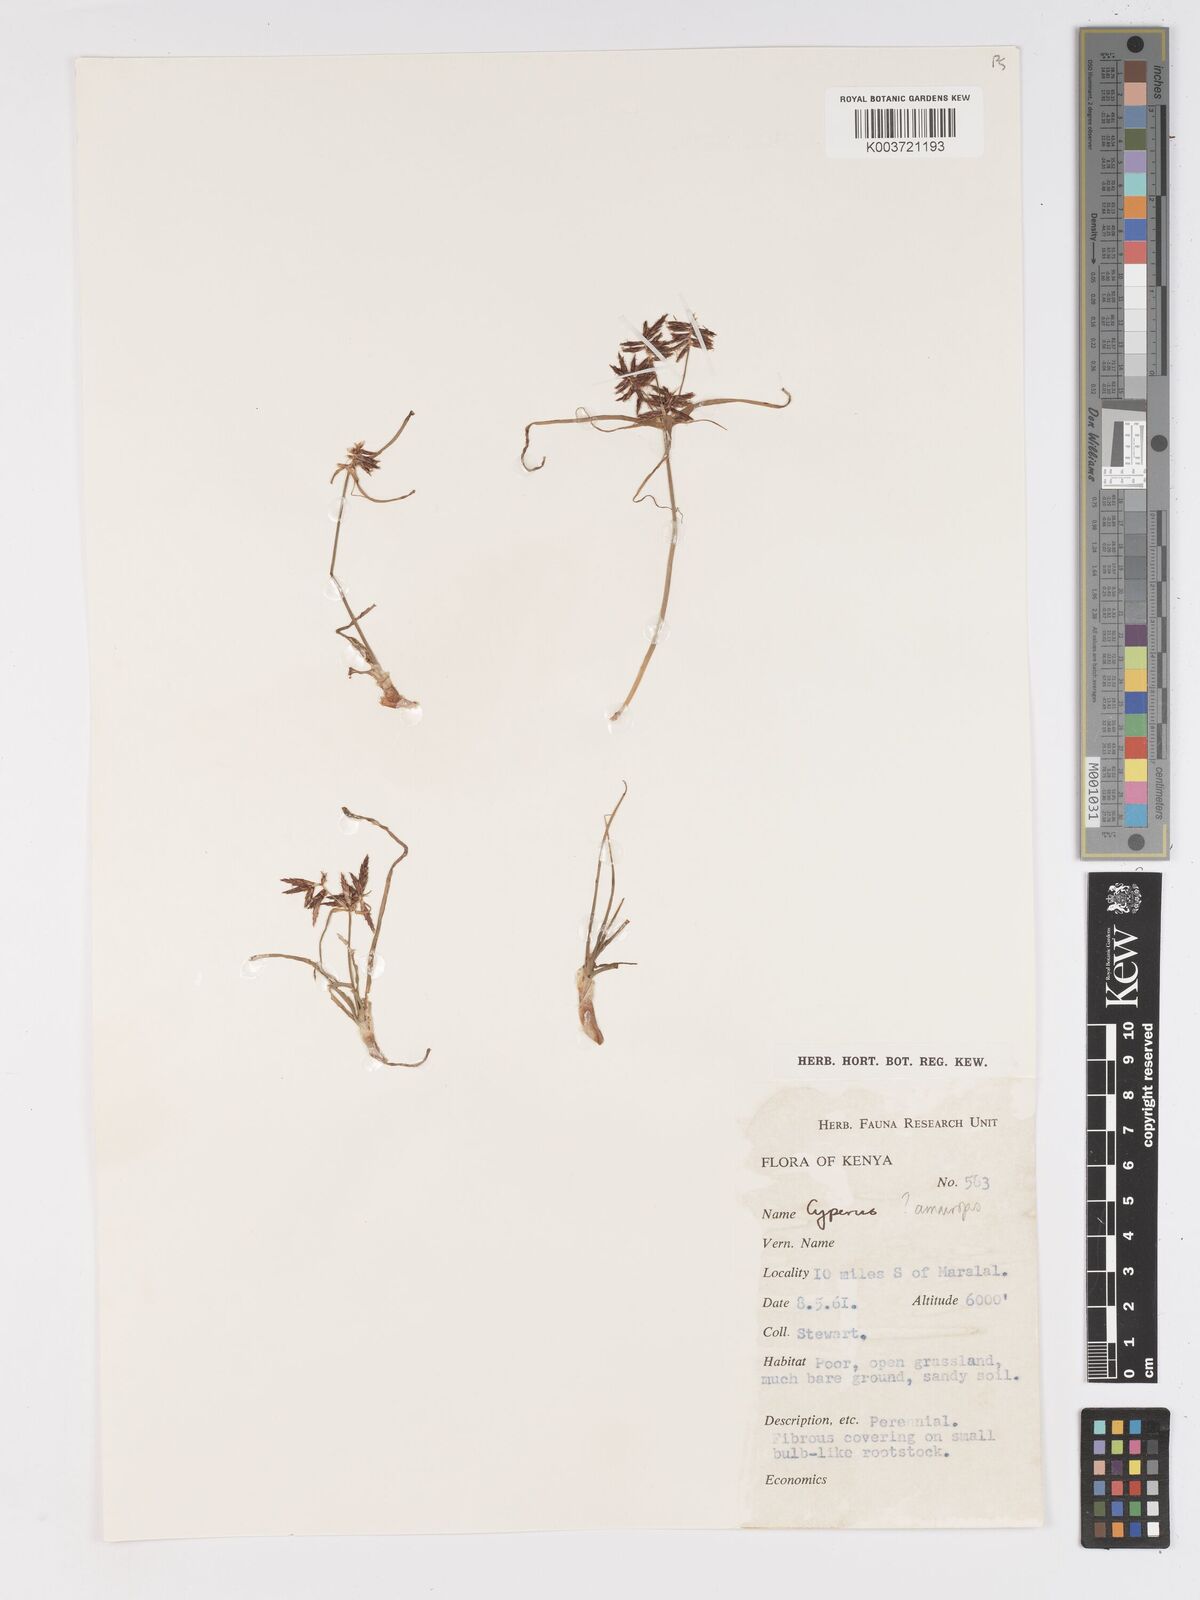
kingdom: Plantae
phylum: Tracheophyta
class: Liliopsida
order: Poales
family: Cyperaceae
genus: Cyperus
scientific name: Cyperus amauropus
